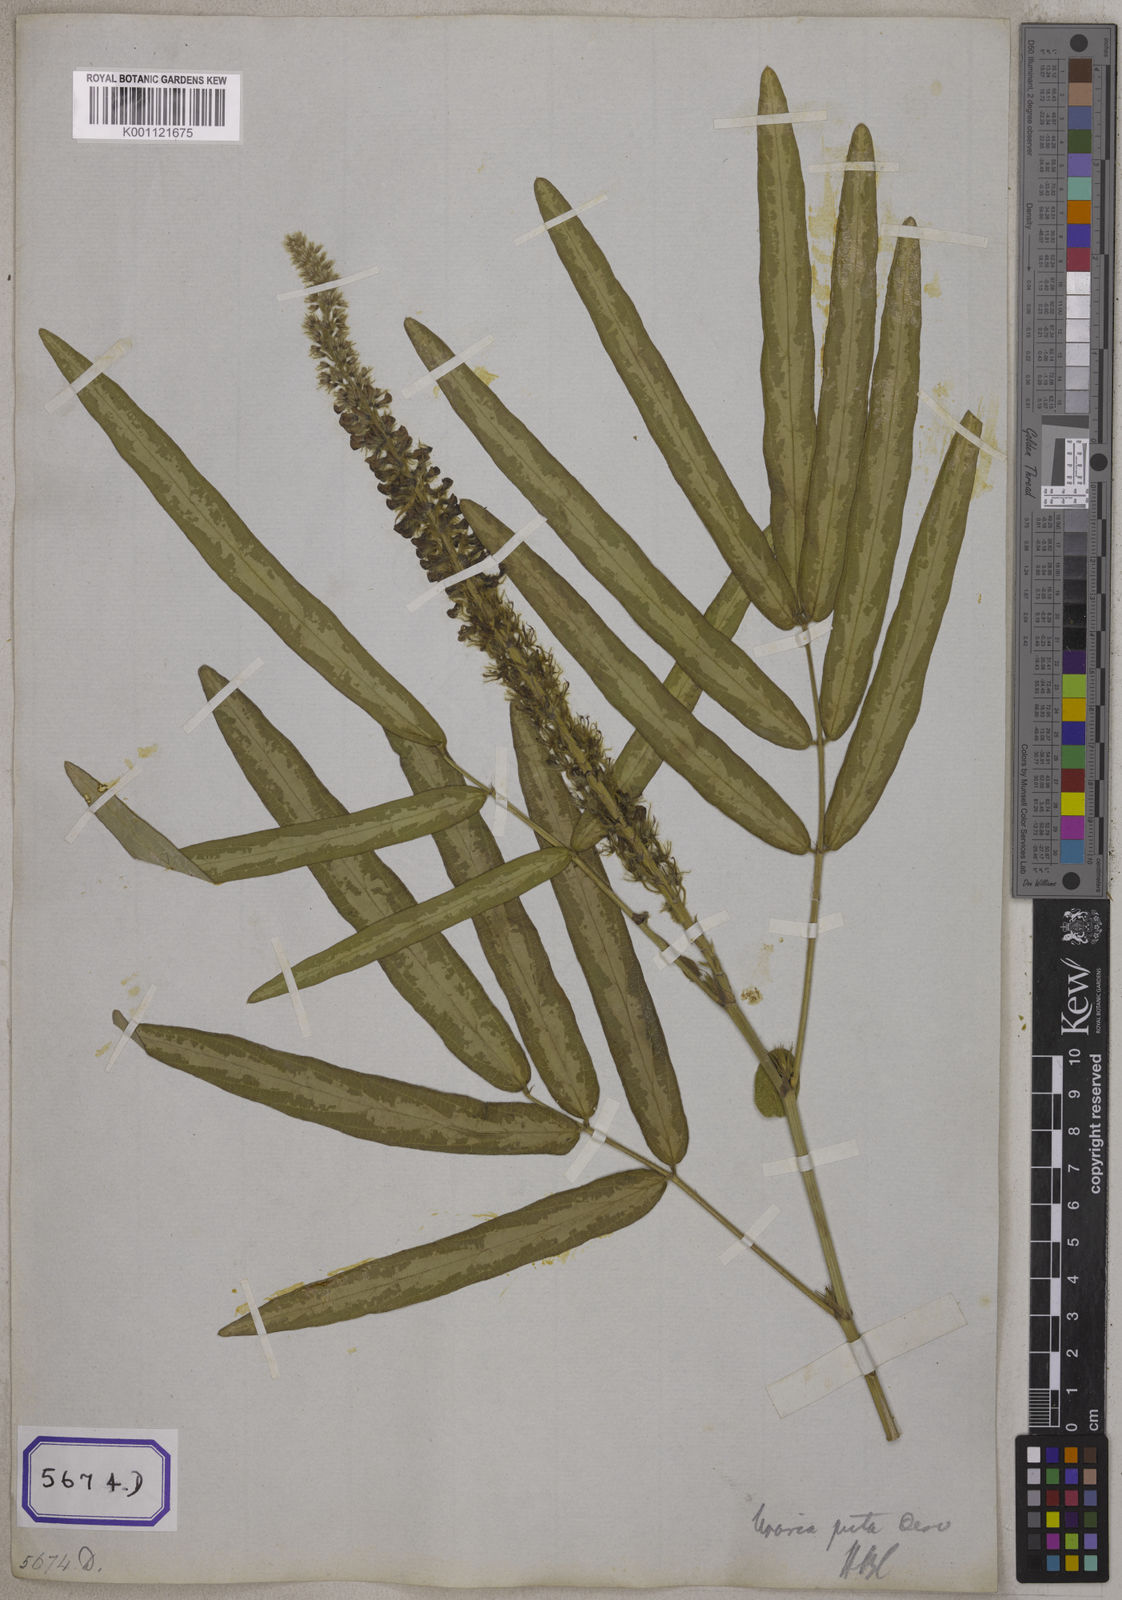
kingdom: Plantae
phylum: Tracheophyta
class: Magnoliopsida
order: Fabales
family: Fabaceae
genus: Uraria
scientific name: Uraria
